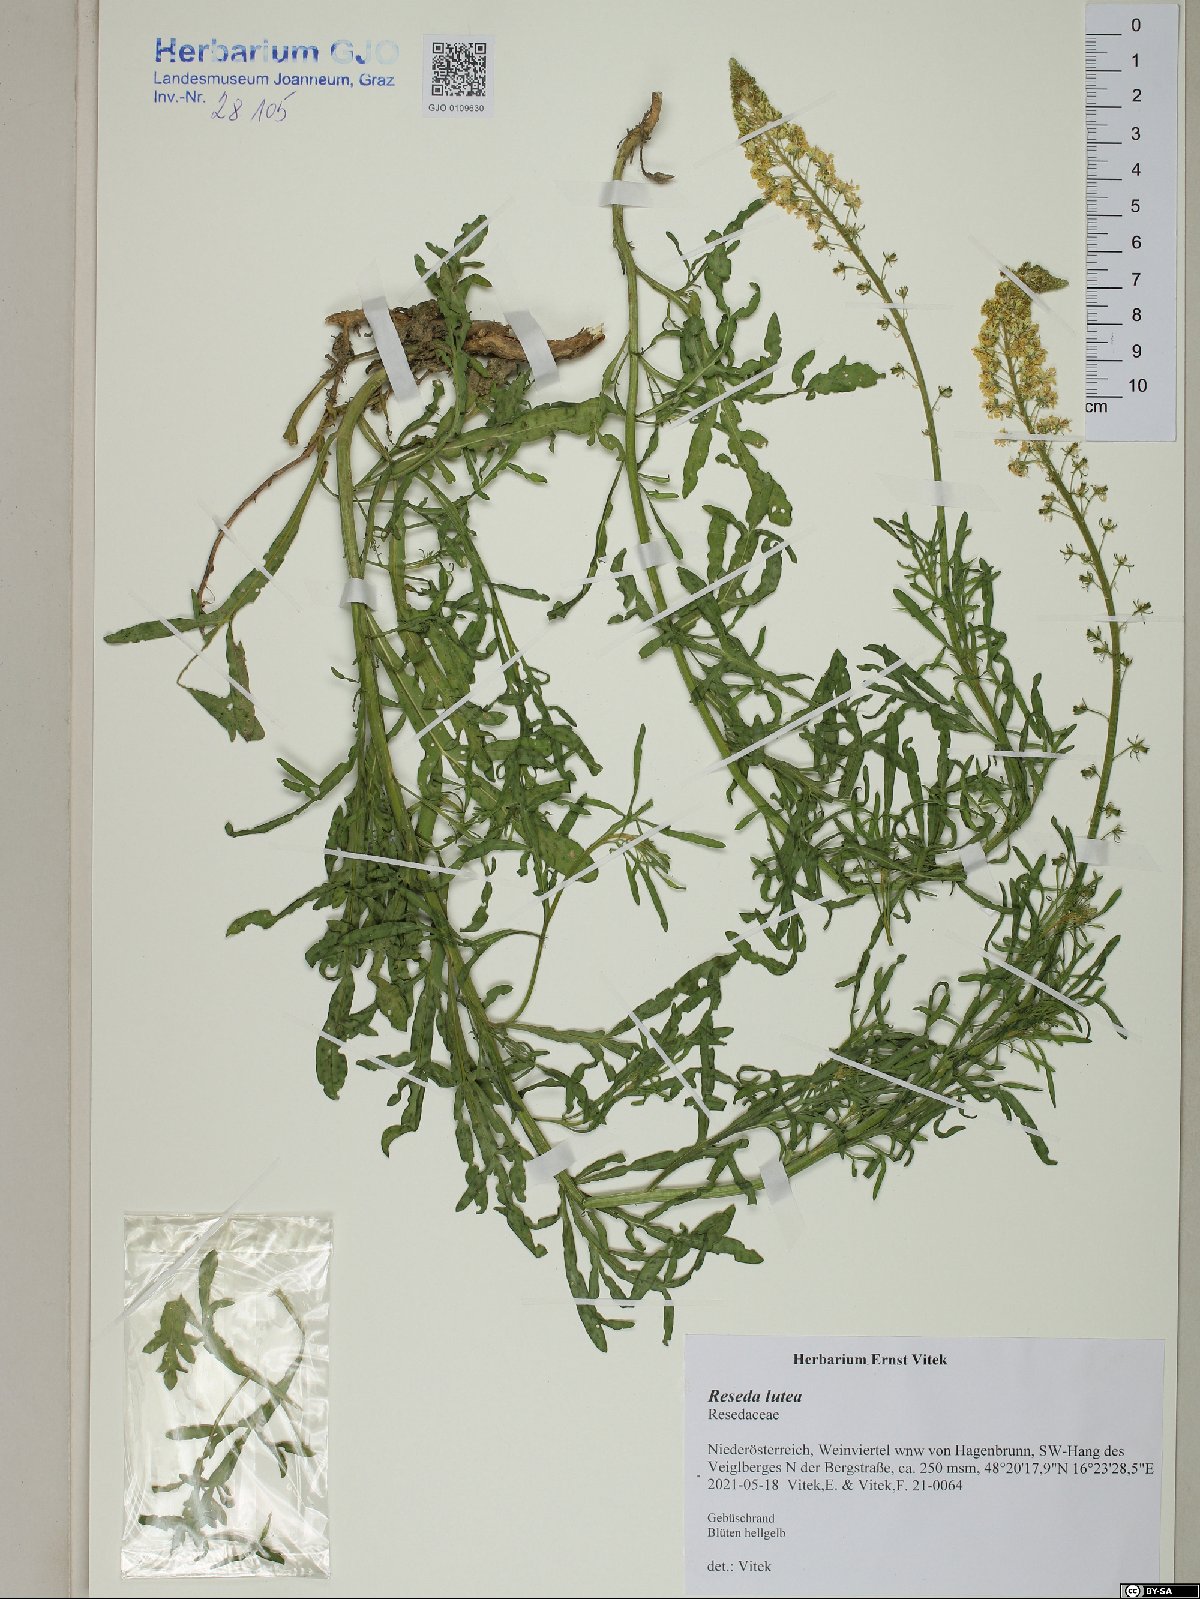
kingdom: Plantae
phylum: Tracheophyta
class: Magnoliopsida
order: Brassicales
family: Resedaceae
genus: Reseda
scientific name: Reseda lutea
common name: Wild mignonette
